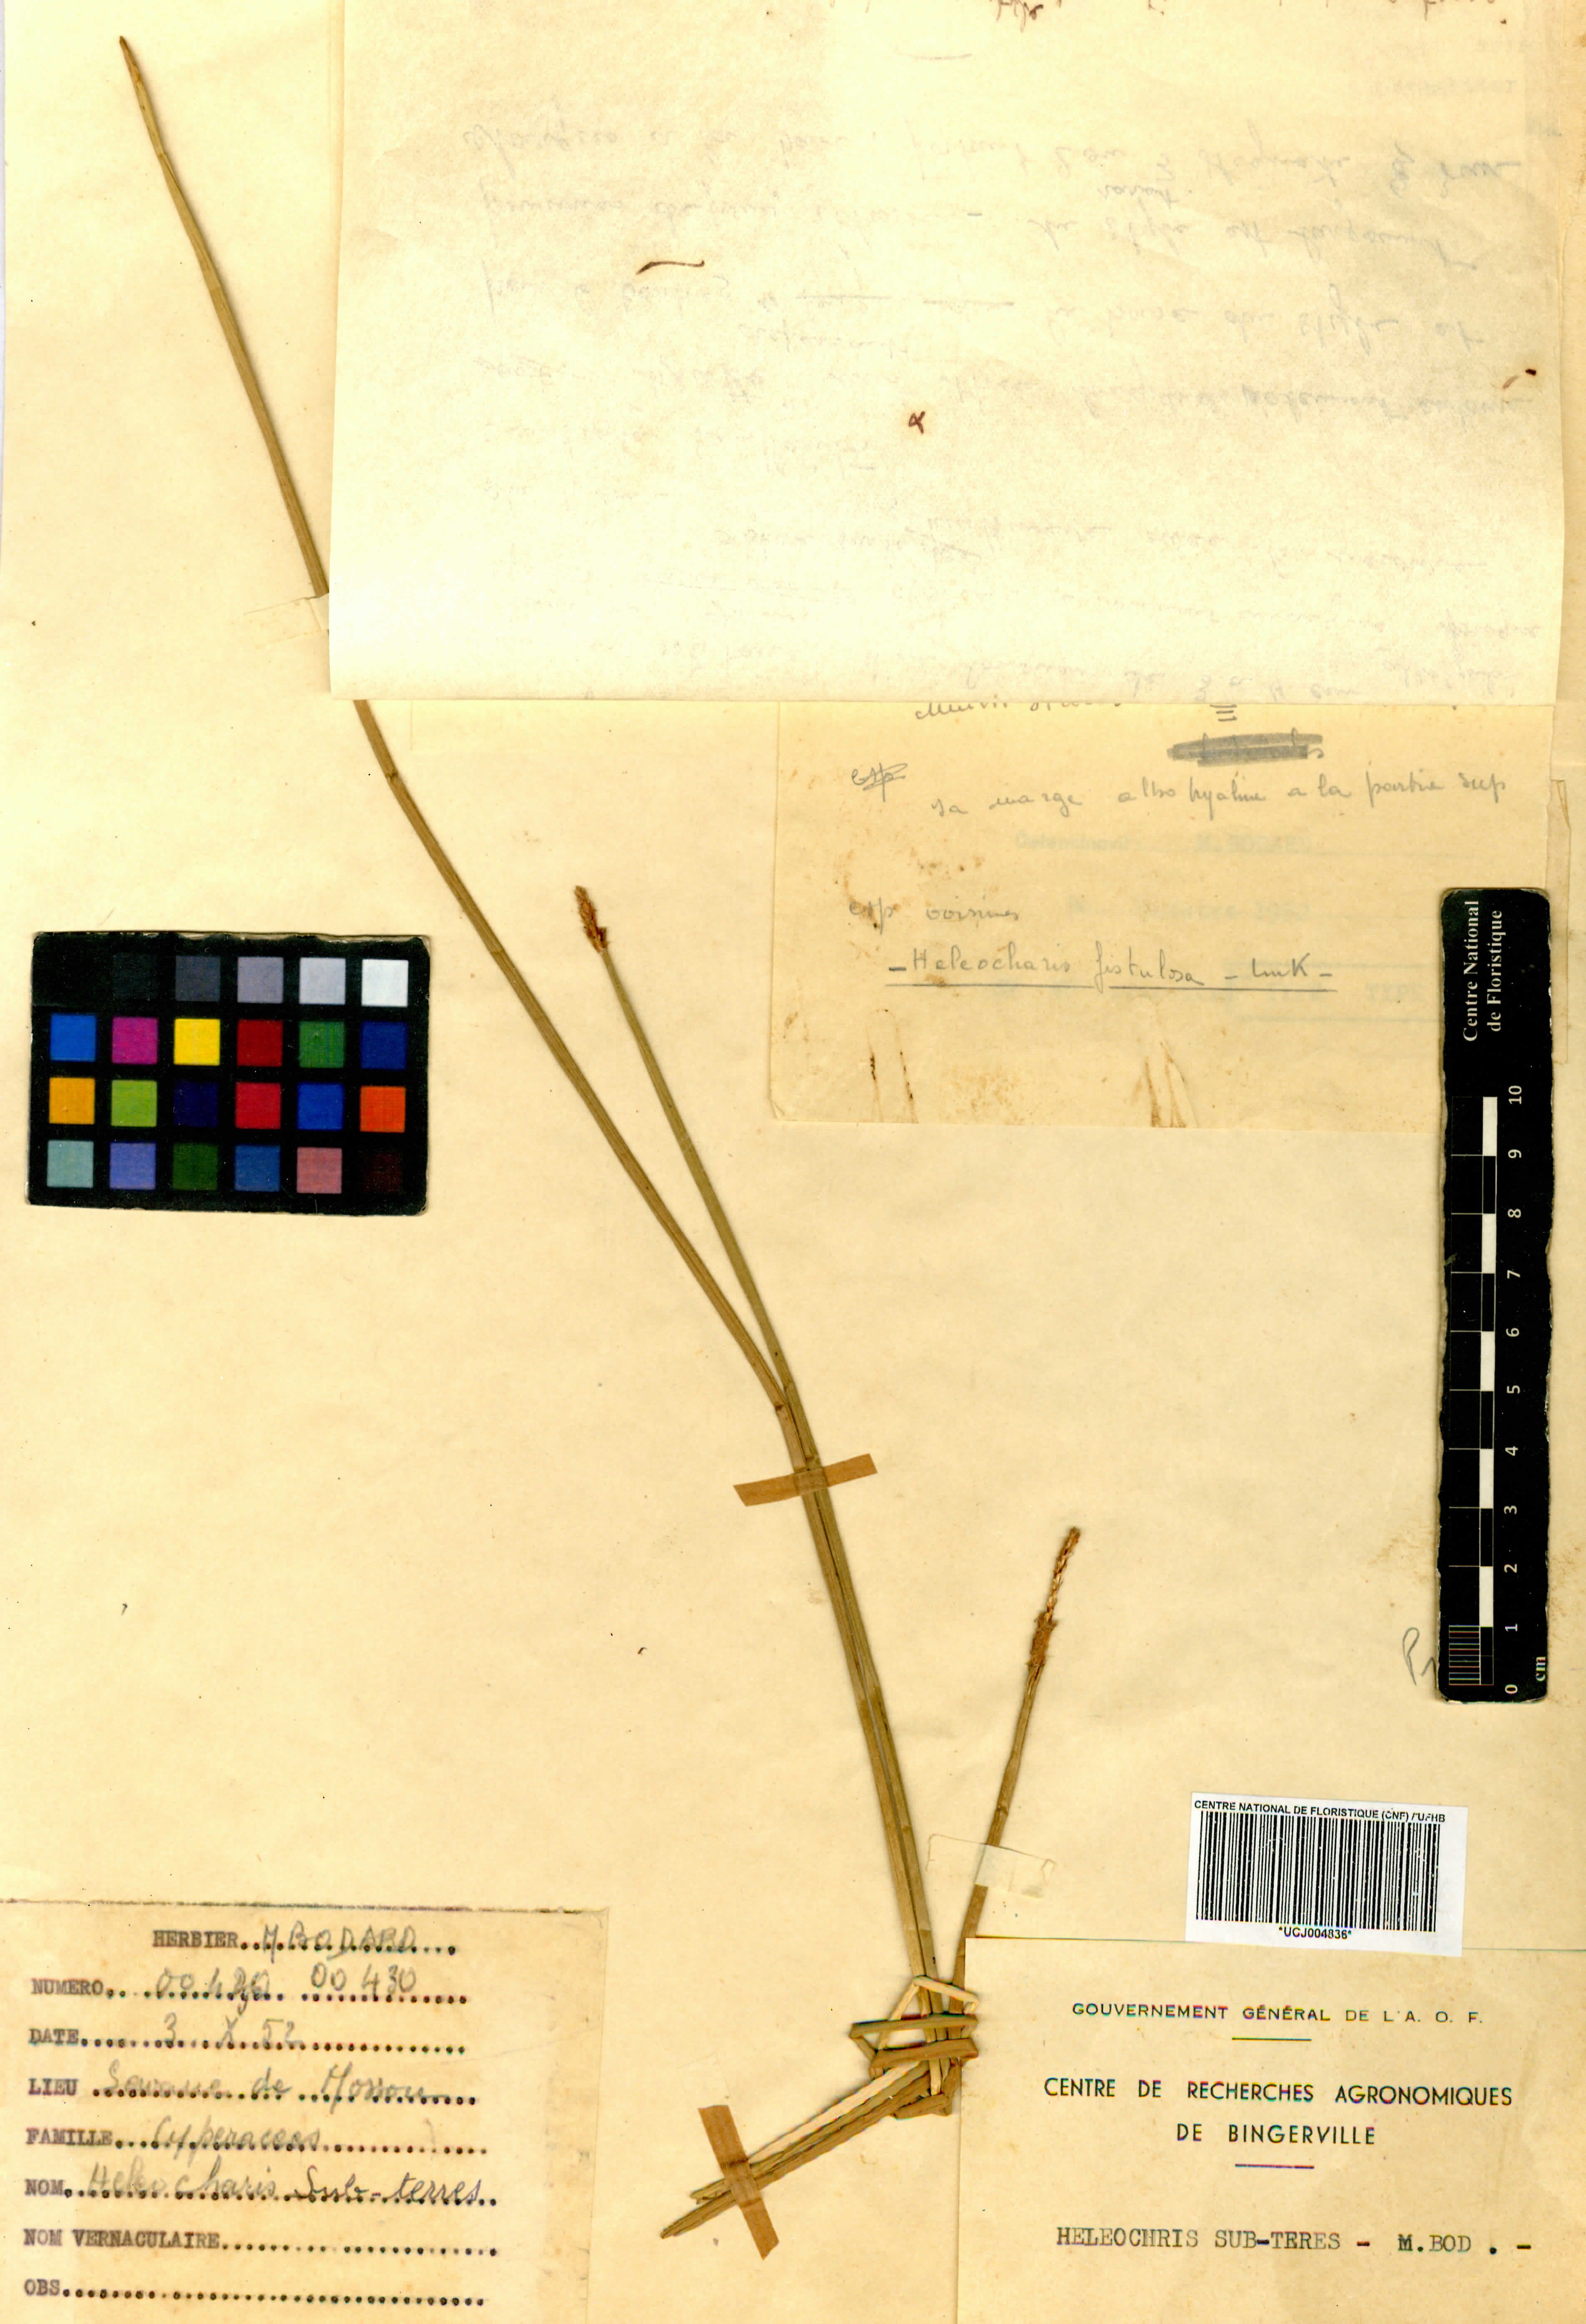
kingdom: Plantae
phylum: Tracheophyta
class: Liliopsida
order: Poales
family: Cyperaceae
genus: Eleocharis
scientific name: Eleocharis
